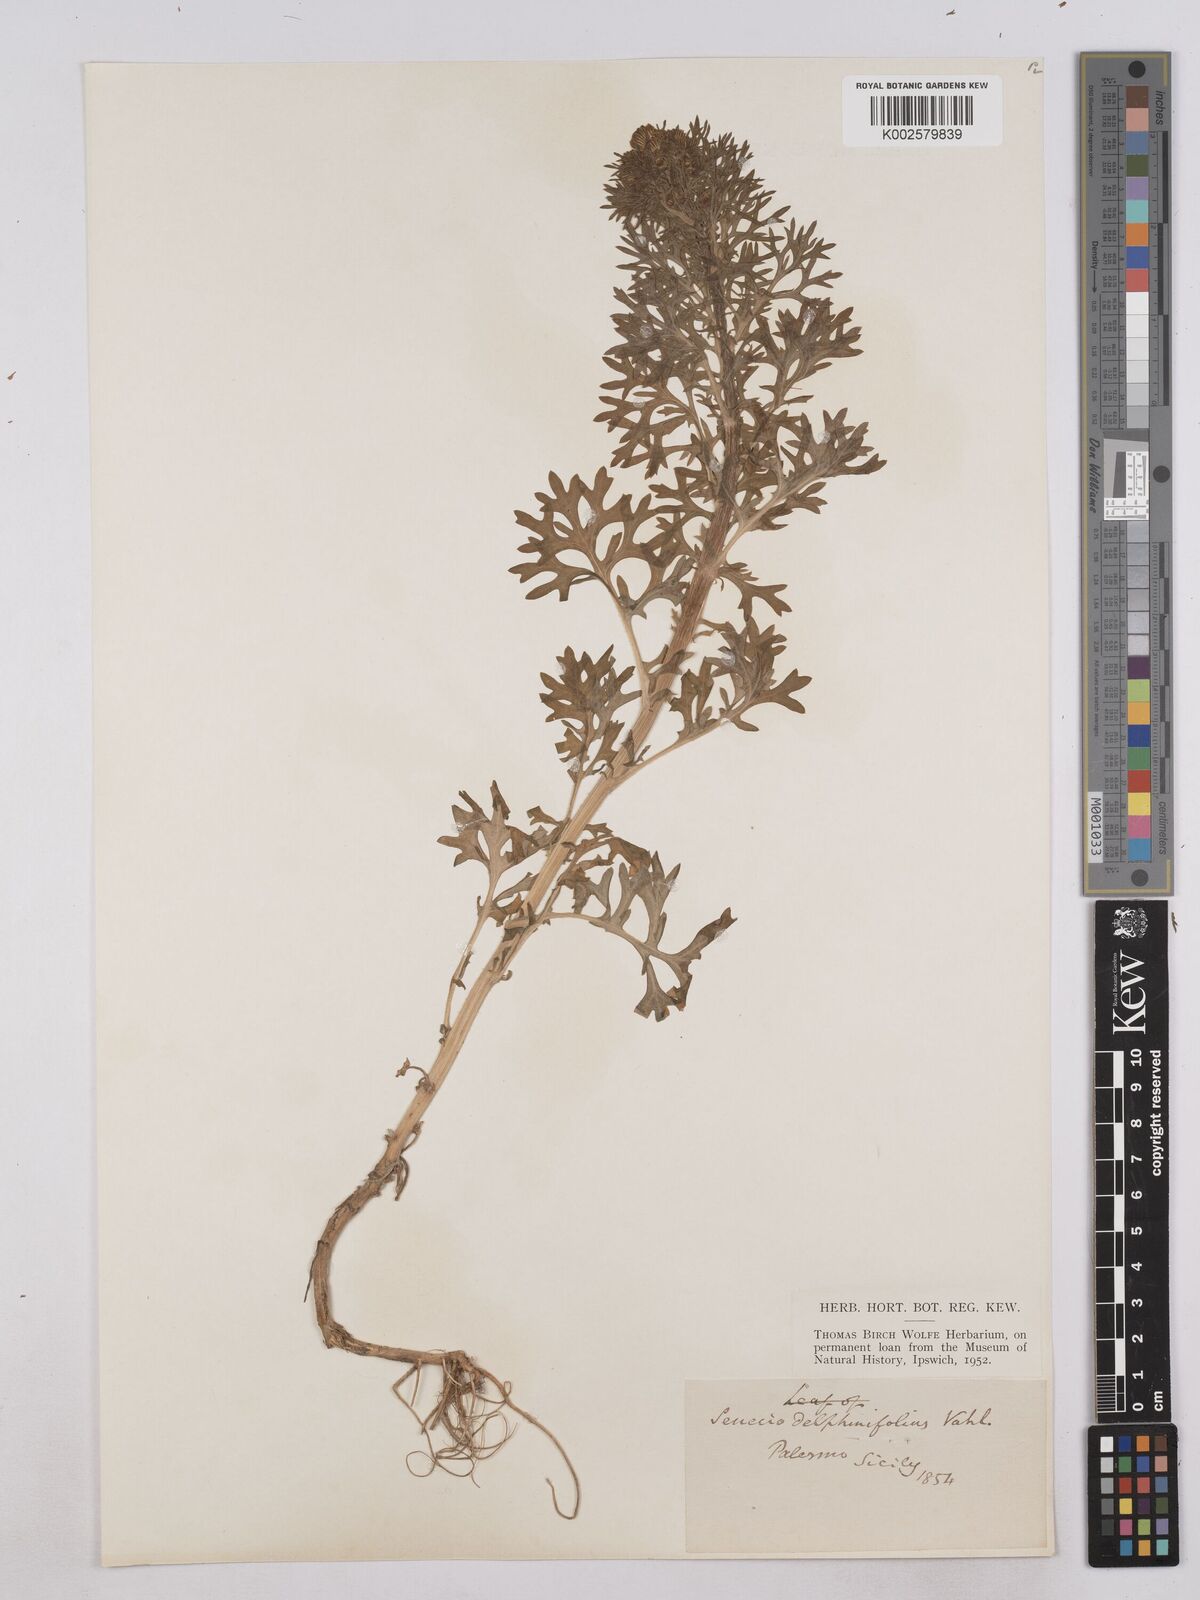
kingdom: Plantae
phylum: Tracheophyta
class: Magnoliopsida
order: Asterales
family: Asteraceae
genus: Jacobaea
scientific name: Jacobaea erucifolia
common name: Hoary ragwort
